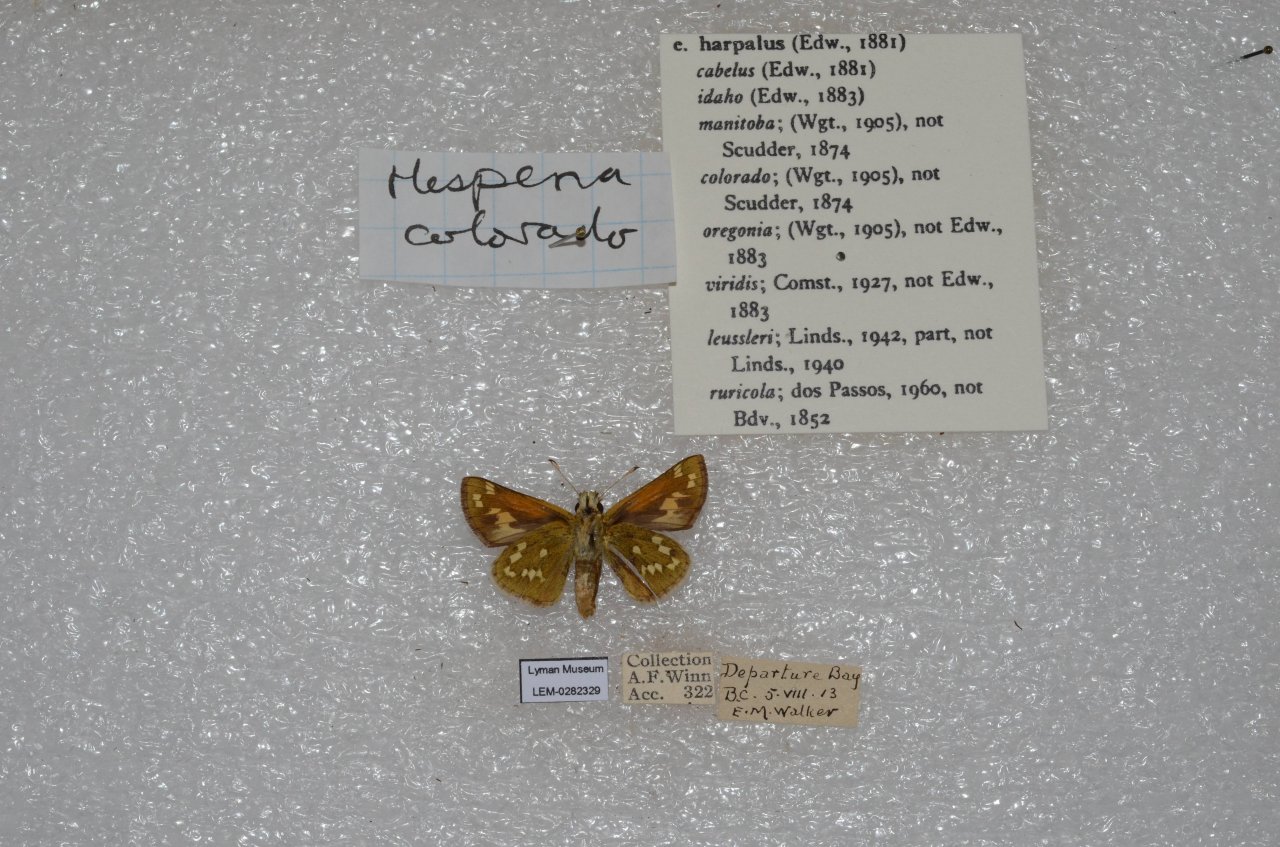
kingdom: Animalia
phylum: Arthropoda
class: Insecta
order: Lepidoptera
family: Hesperiidae
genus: Hesperia
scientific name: Hesperia comma
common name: Western Branded Skipper
